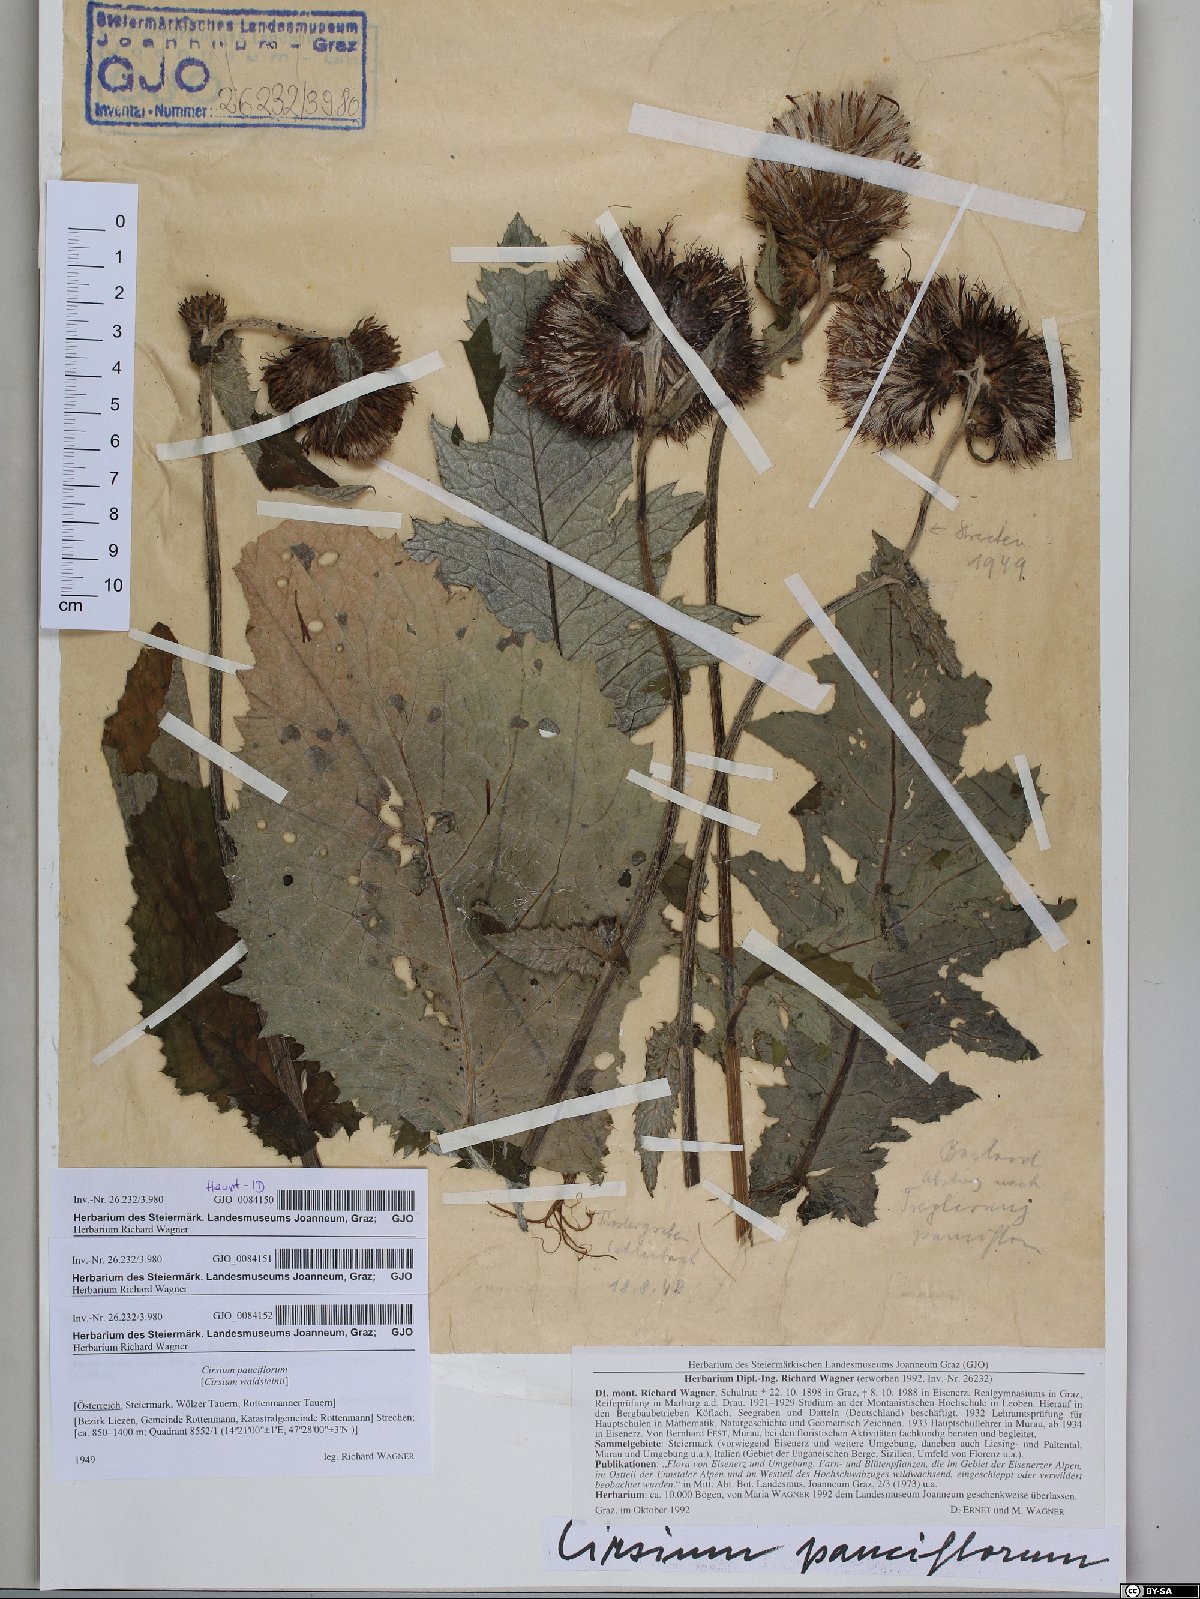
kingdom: Plantae
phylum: Tracheophyta
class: Magnoliopsida
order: Asterales
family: Asteraceae
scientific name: Asteraceae
